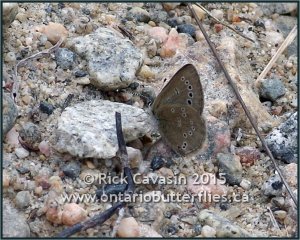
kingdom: Animalia
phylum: Arthropoda
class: Insecta
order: Lepidoptera
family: Lycaenidae
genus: Glaucopsyche
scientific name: Glaucopsyche lygdamus
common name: Silvery Blue
